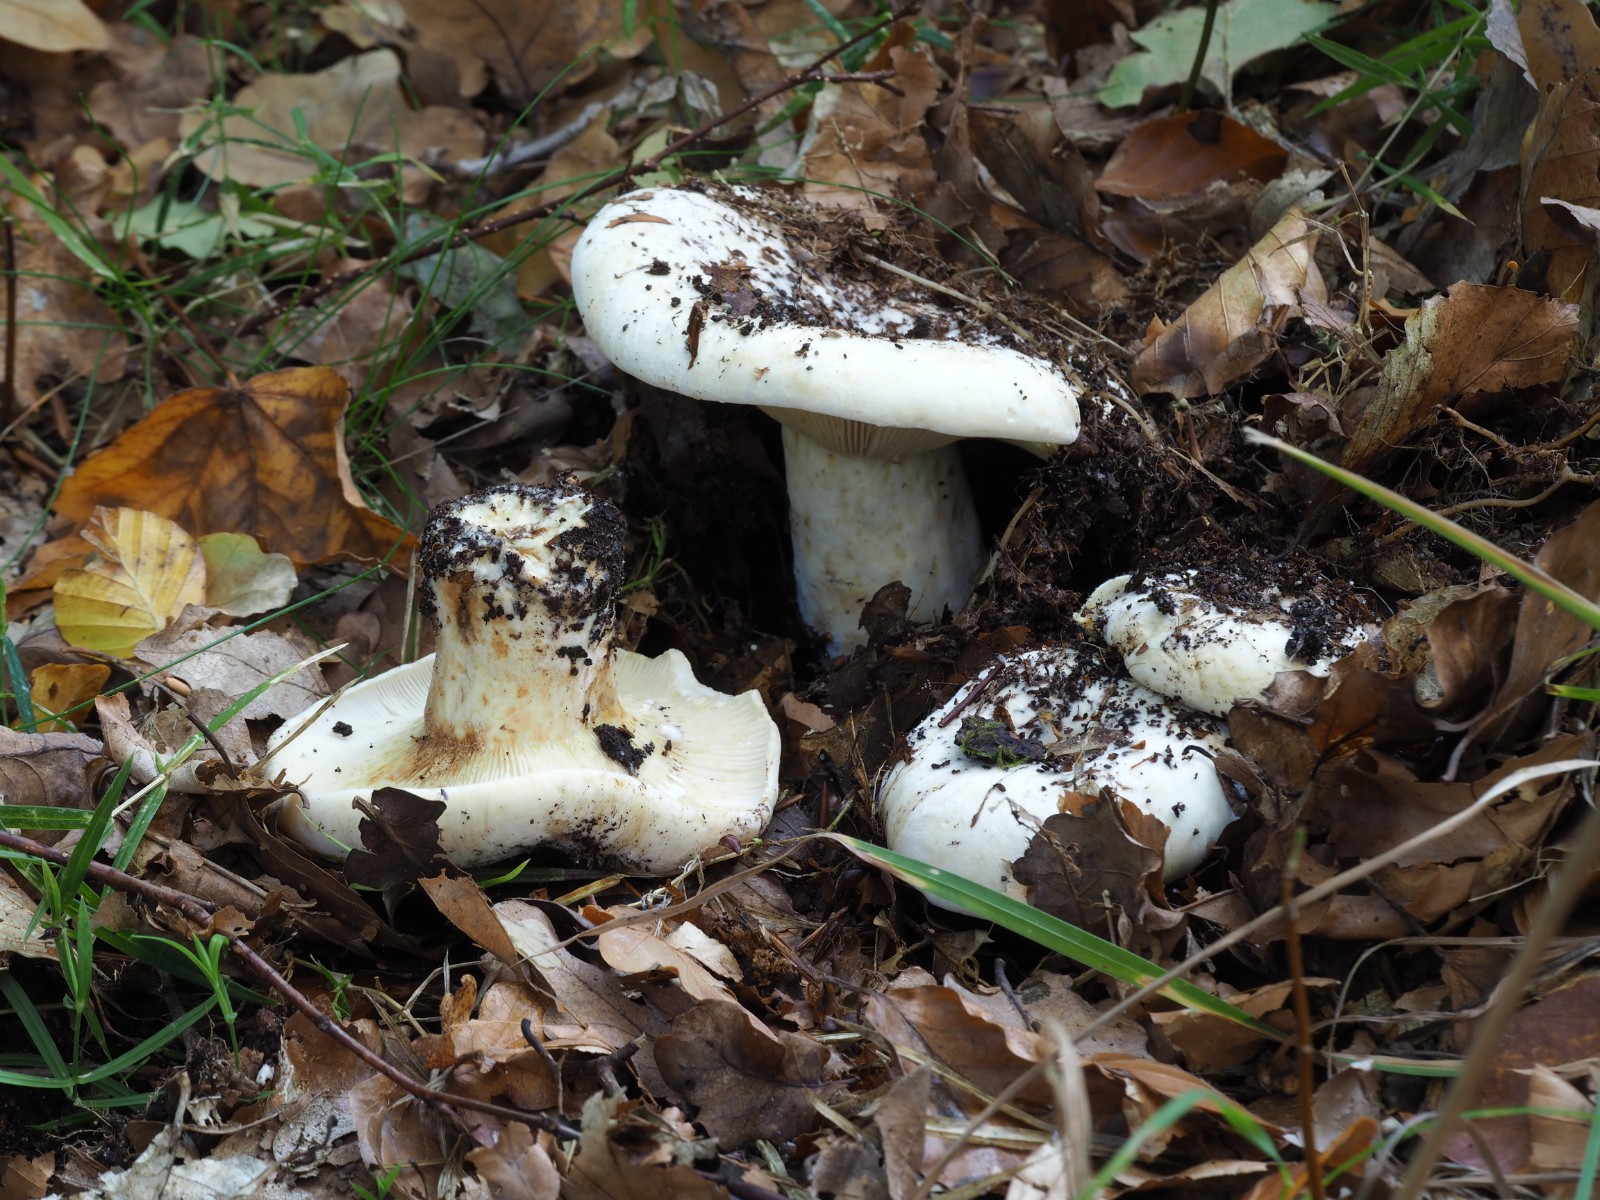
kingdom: Fungi
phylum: Basidiomycota
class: Agaricomycetes
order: Russulales
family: Russulaceae
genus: Lactifluus
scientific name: Lactifluus vellereus
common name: hvidfiltet mælkehat
